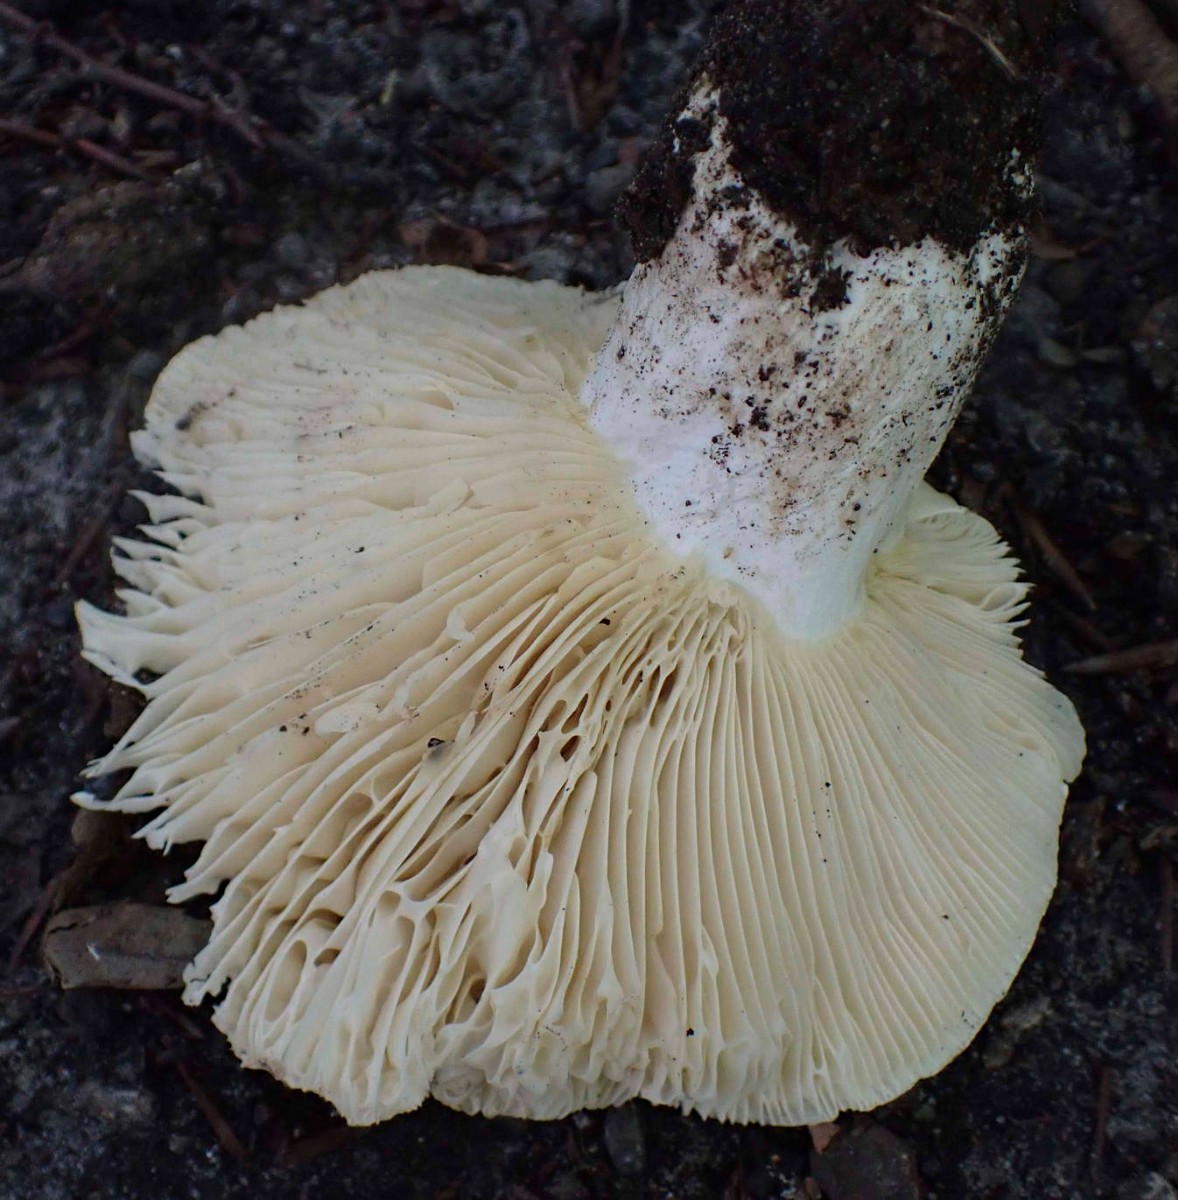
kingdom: Fungi
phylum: Basidiomycota
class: Agaricomycetes
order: Russulales
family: Russulaceae
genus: Russula
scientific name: Russula pseudodelica
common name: gulbladet tragt-skørhat
